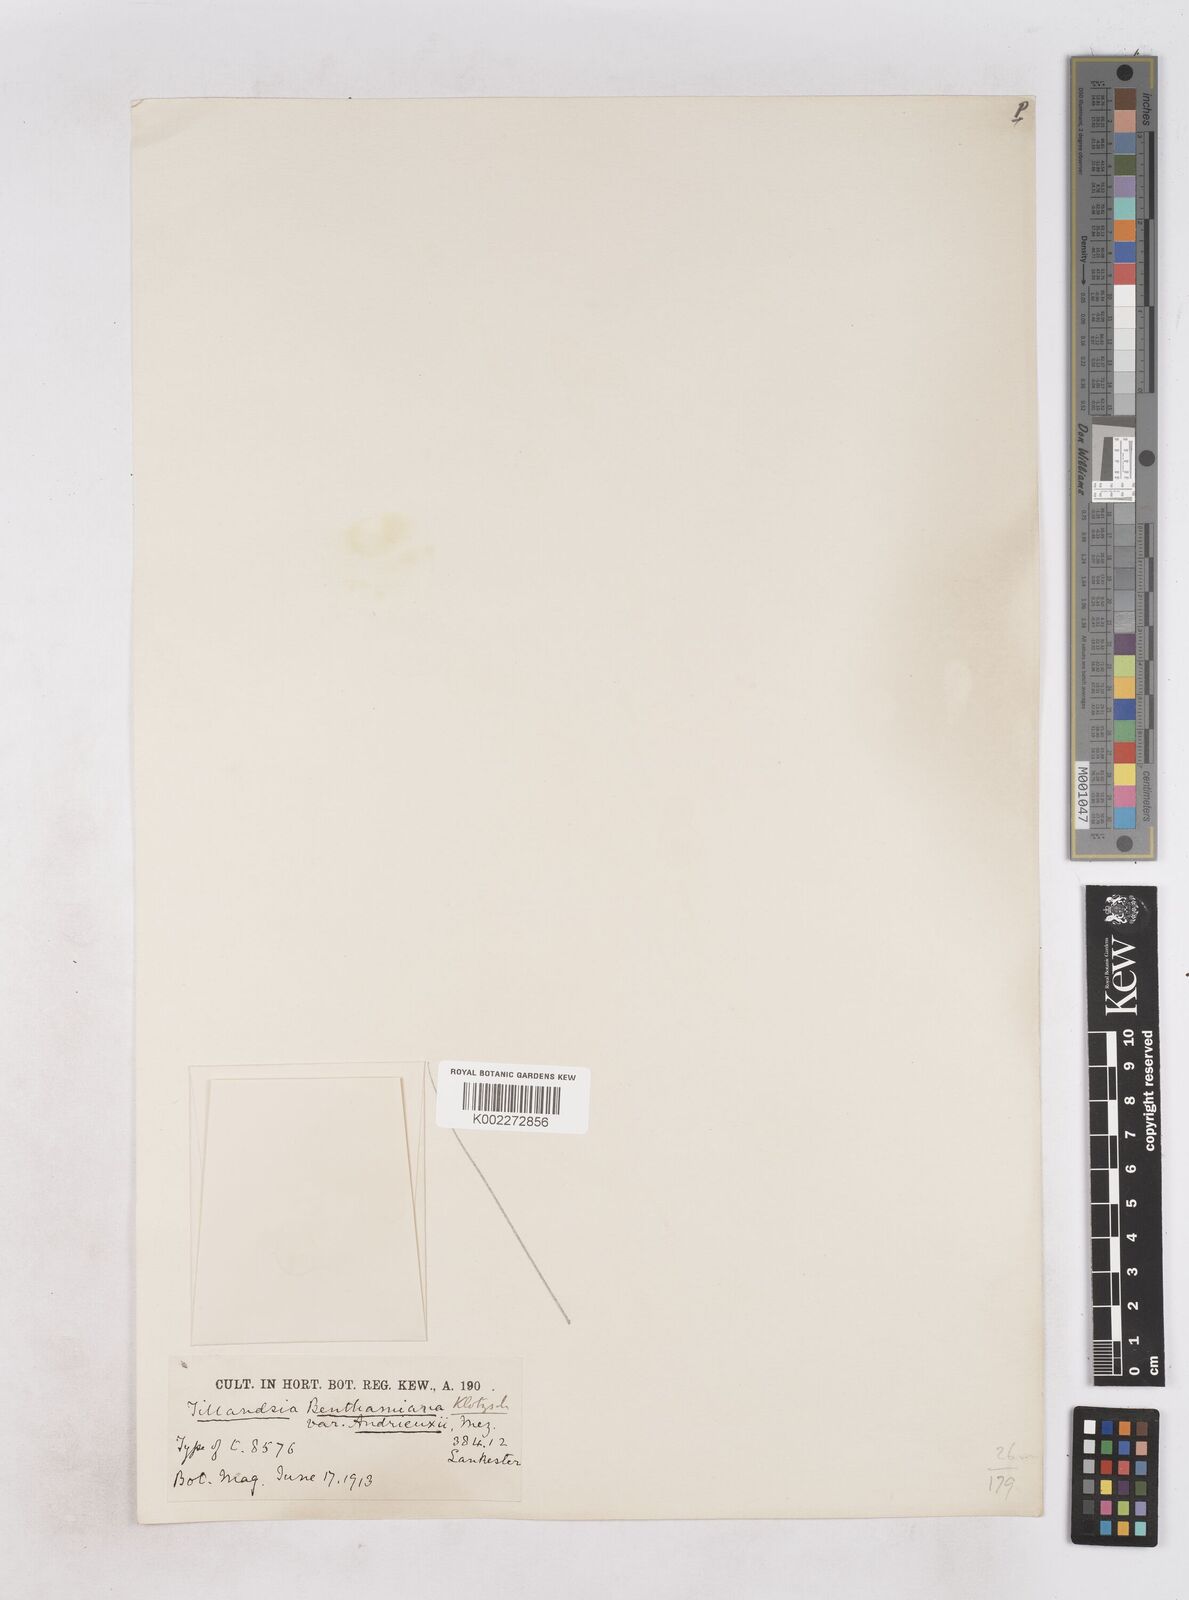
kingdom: Plantae
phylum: Tracheophyta
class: Liliopsida
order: Poales
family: Bromeliaceae
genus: Tillandsia
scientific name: Tillandsia andrieuxii
